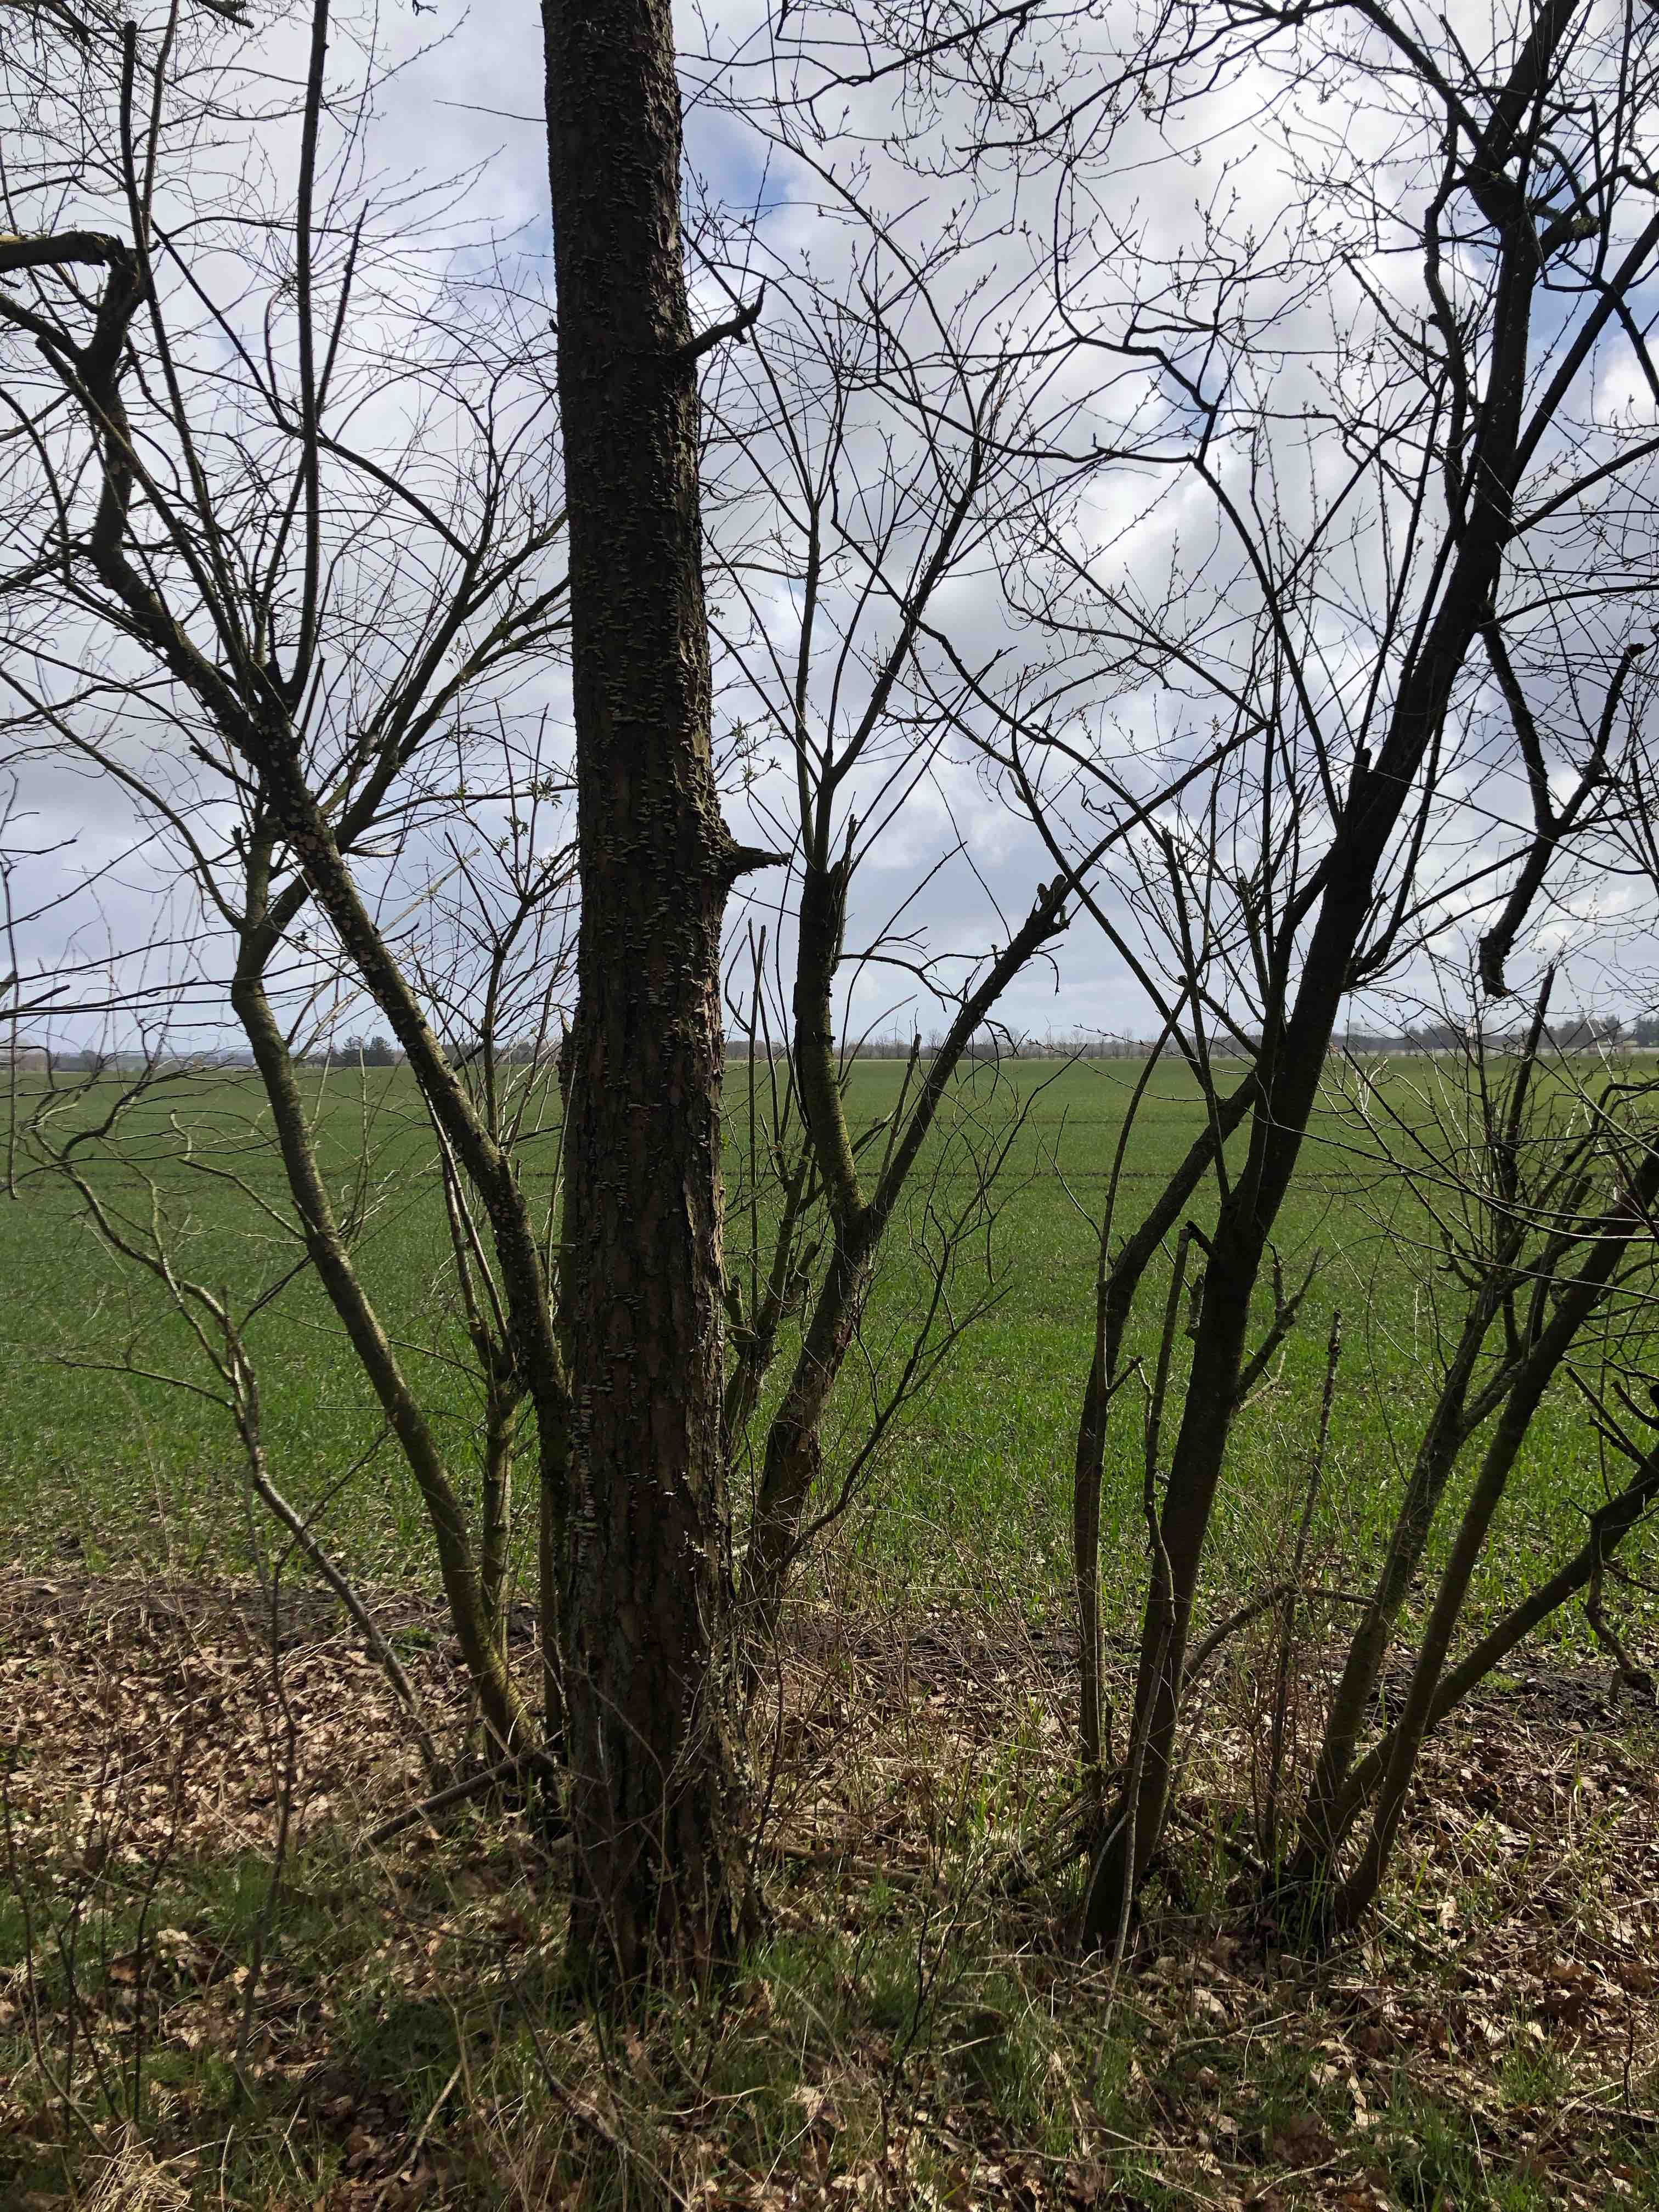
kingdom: Fungi
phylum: Basidiomycota
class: Agaricomycetes
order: Hymenochaetales
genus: Trichaptum
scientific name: Trichaptum abietinum
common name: almindelig violporesvamp
